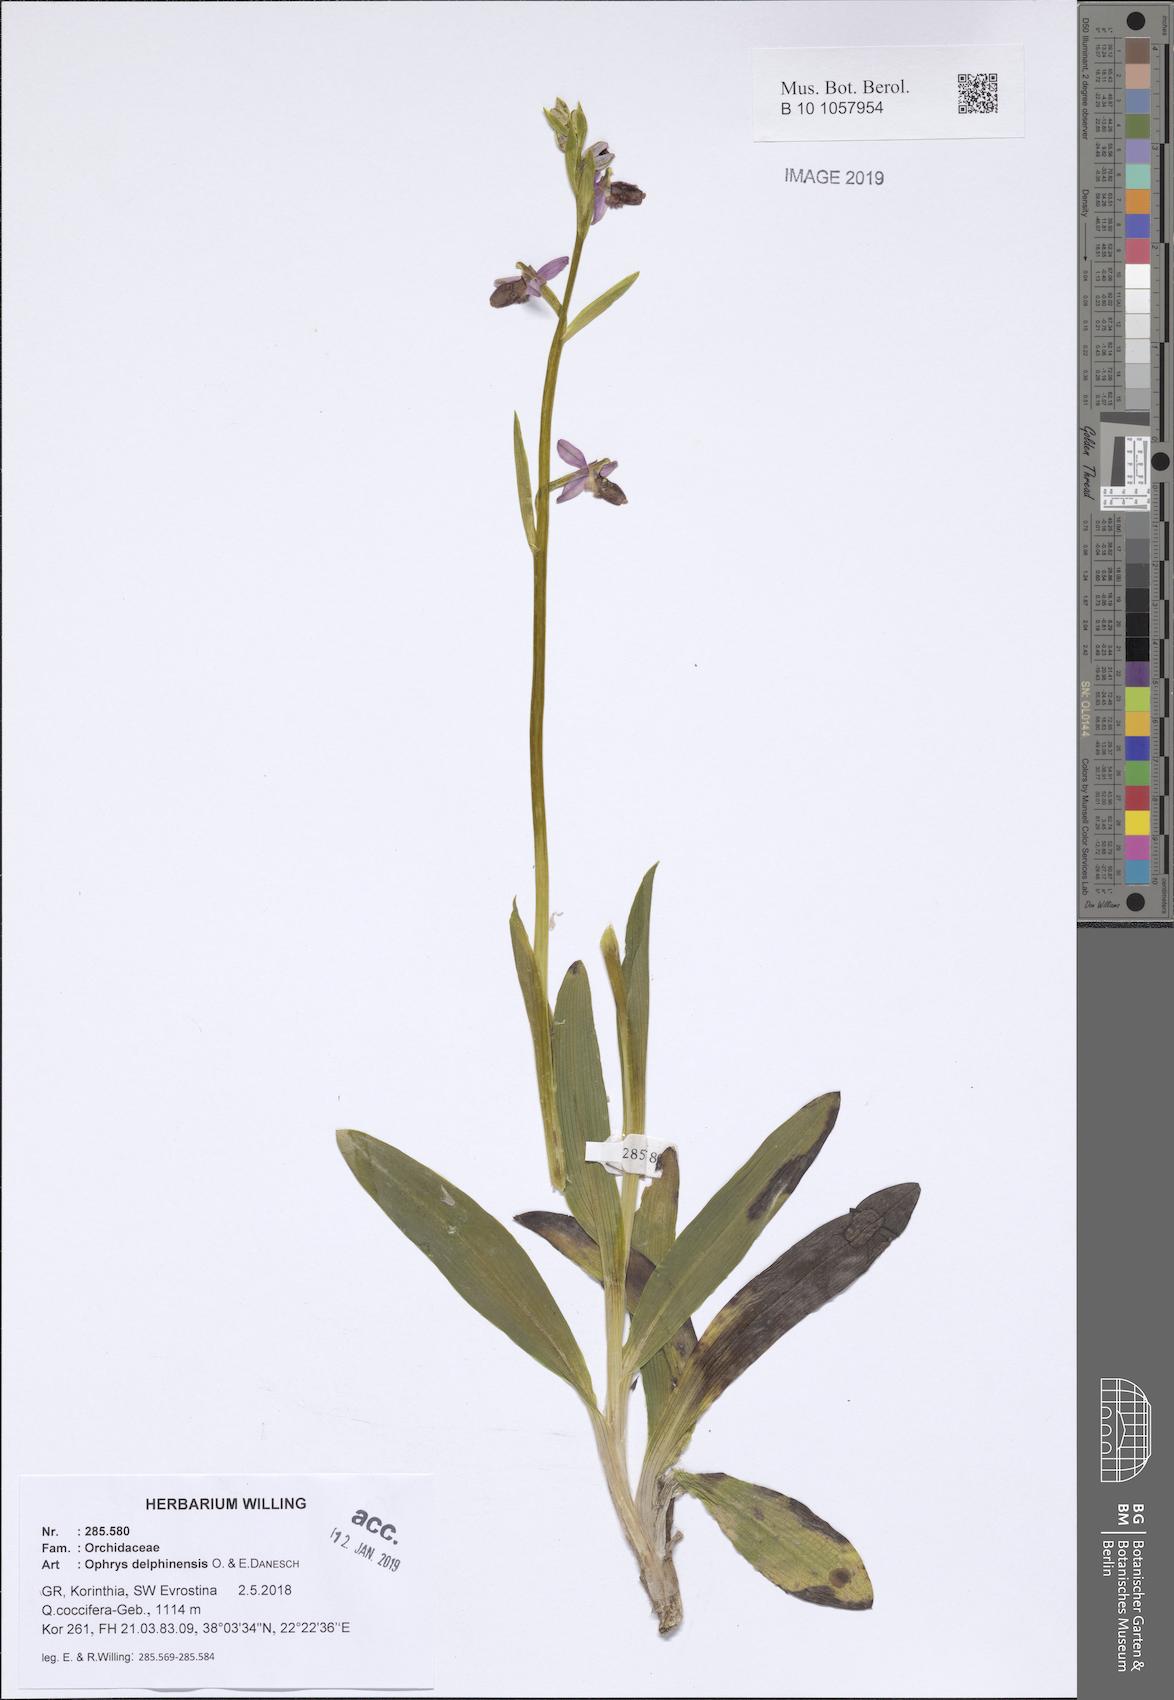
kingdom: Plantae
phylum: Tracheophyta
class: Liliopsida
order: Asparagales
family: Orchidaceae
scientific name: Orchidaceae
